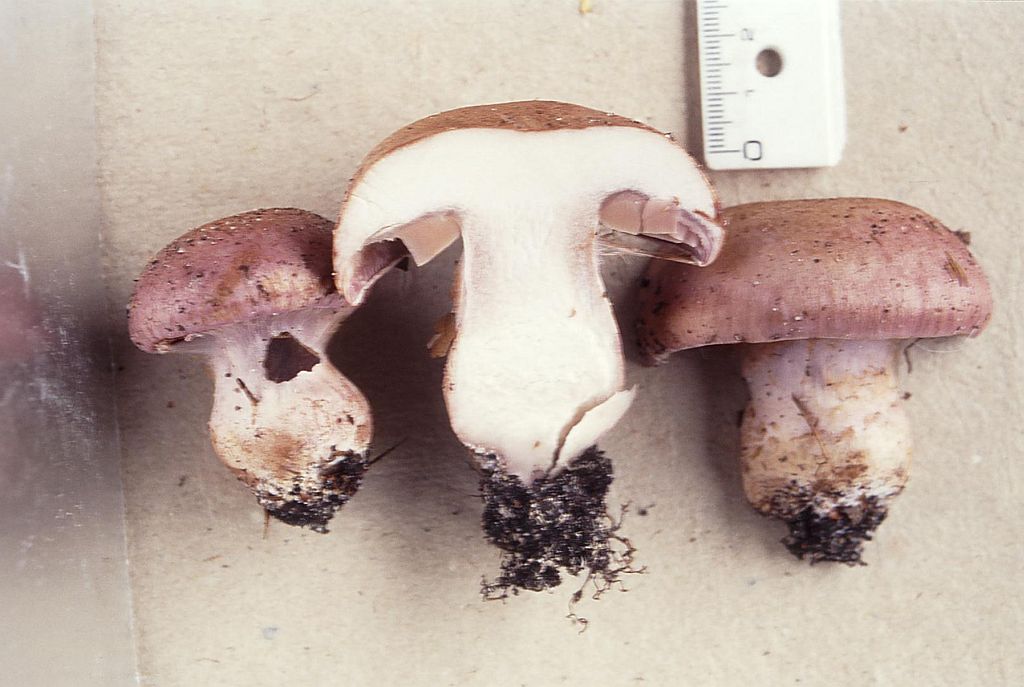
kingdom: Fungi
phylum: Basidiomycota
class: Agaricomycetes
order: Agaricales
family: Cortinariaceae
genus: Cortinarius
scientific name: Cortinarius largus
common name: violetrandet slørhat
